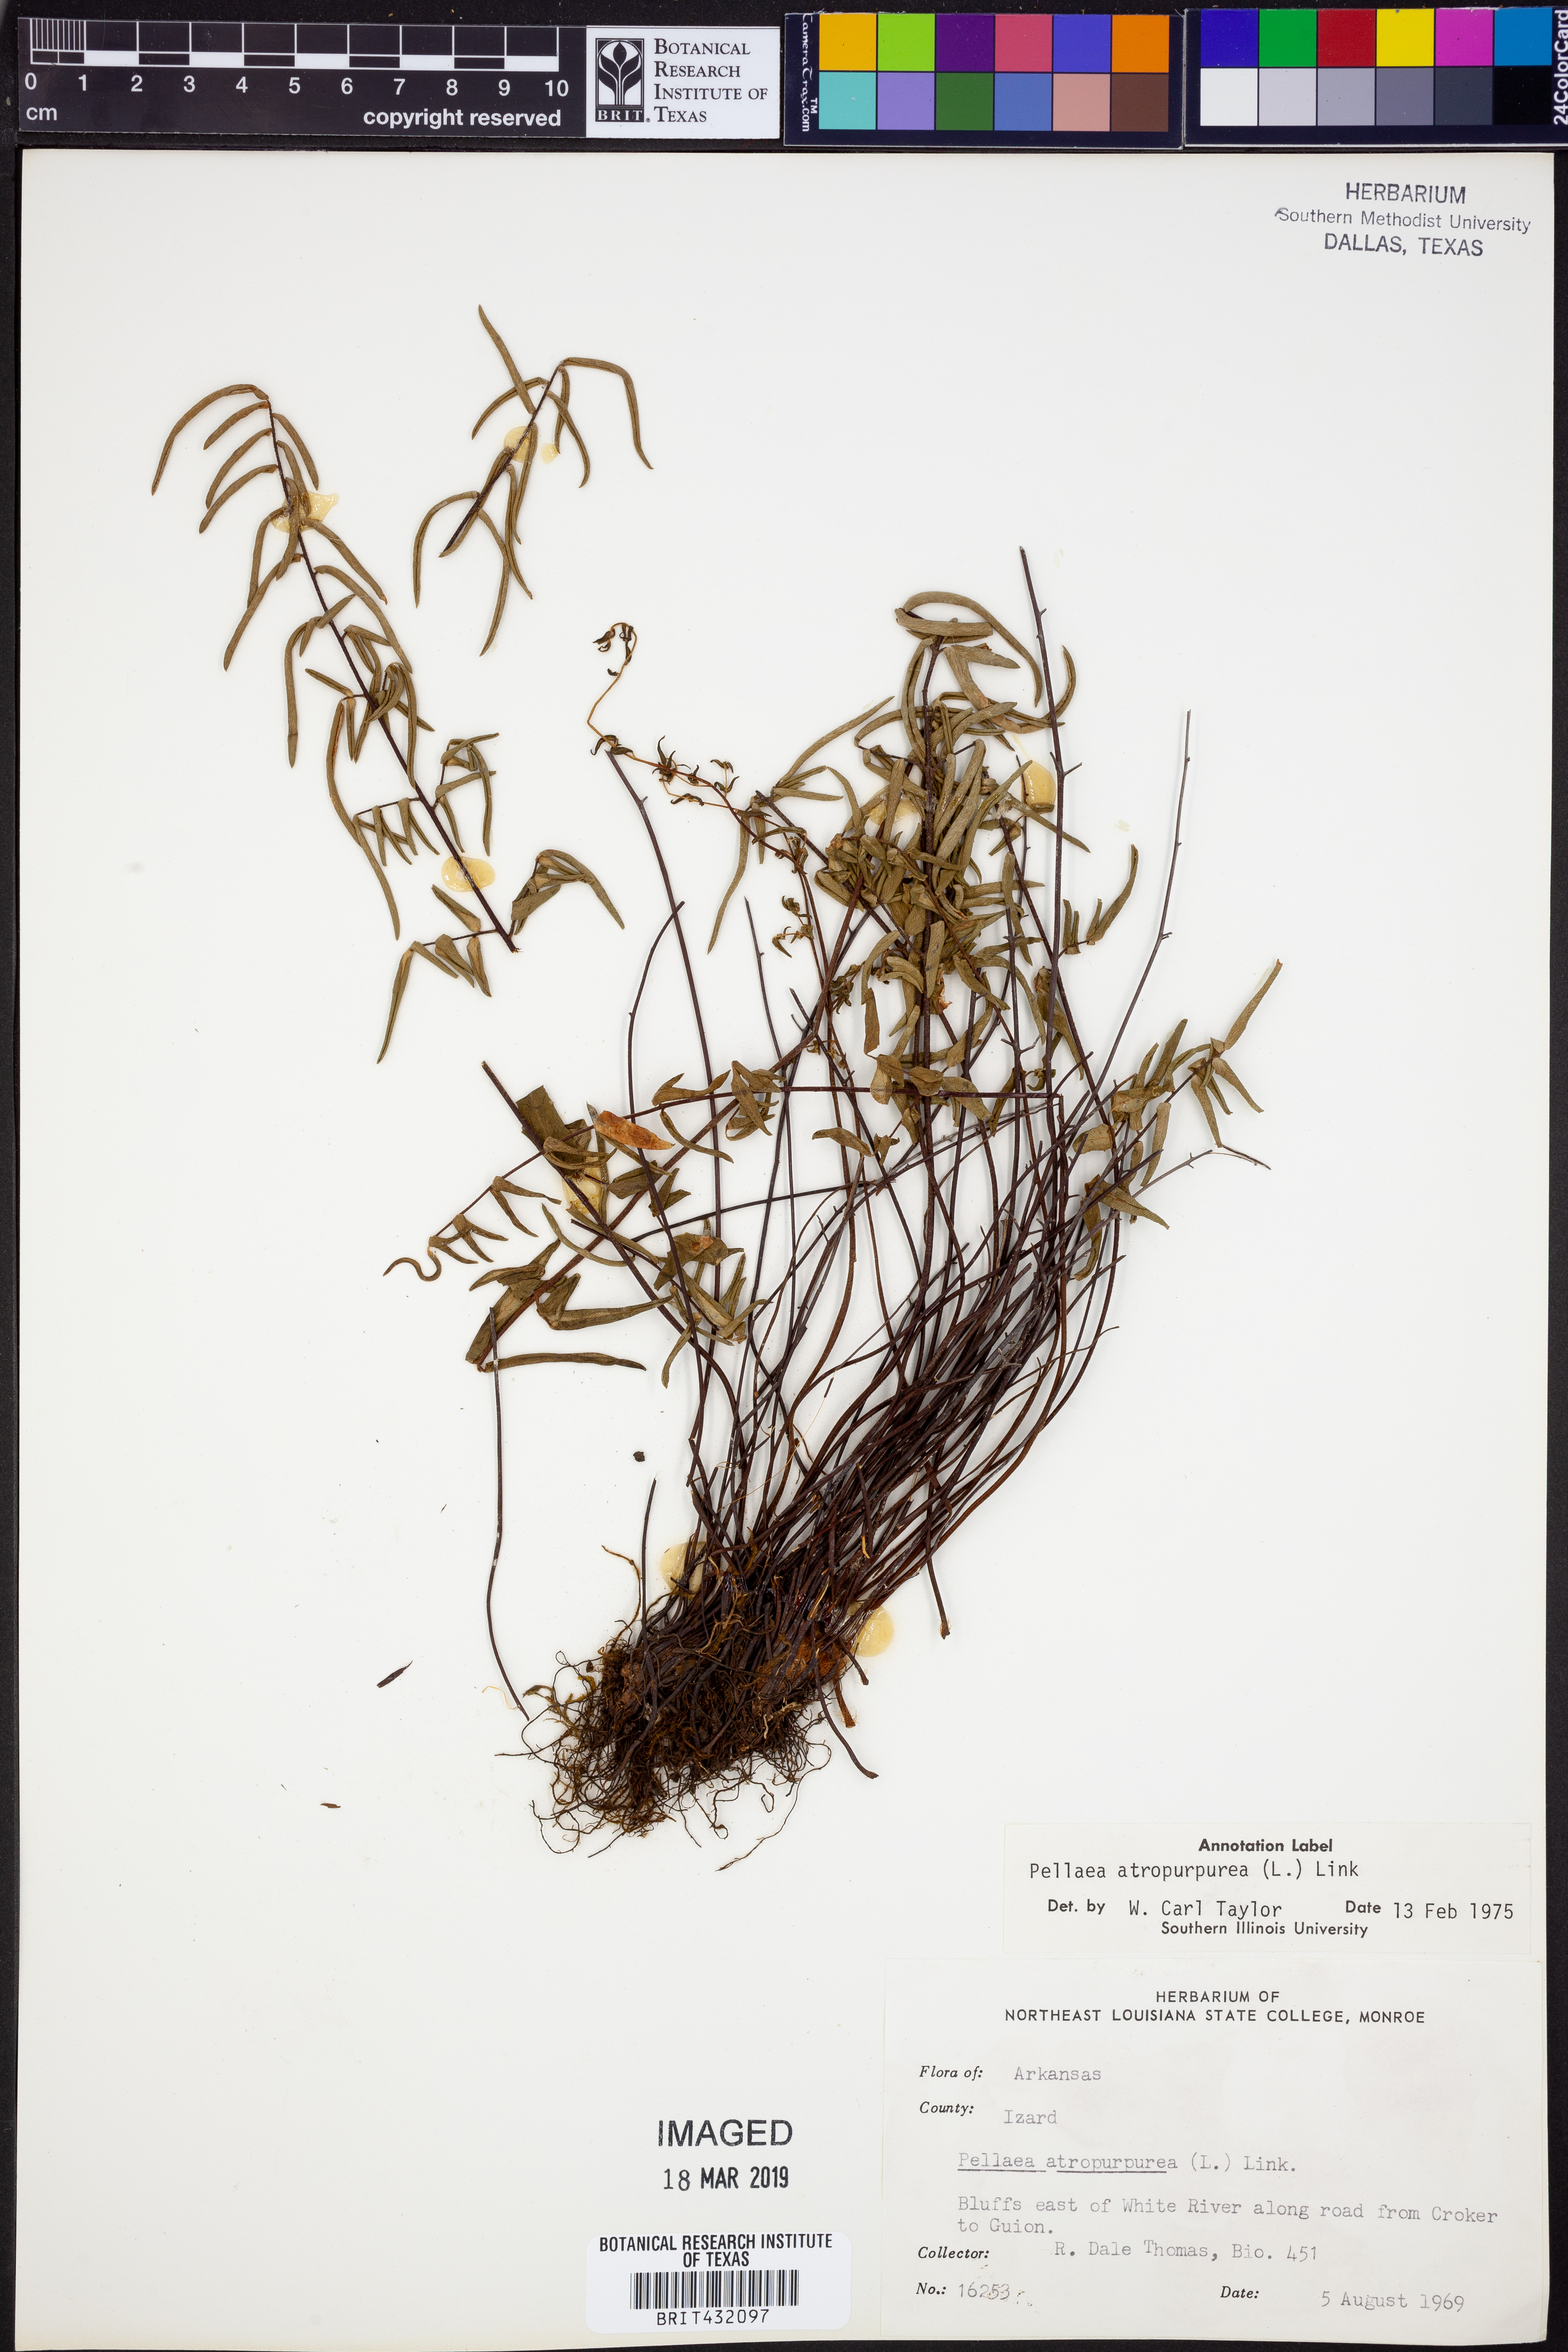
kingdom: Plantae
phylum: Tracheophyta
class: Polypodiopsida
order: Polypodiales
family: Pteridaceae
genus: Pellaea
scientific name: Pellaea atropurpurea
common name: Hairy cliffbrake
